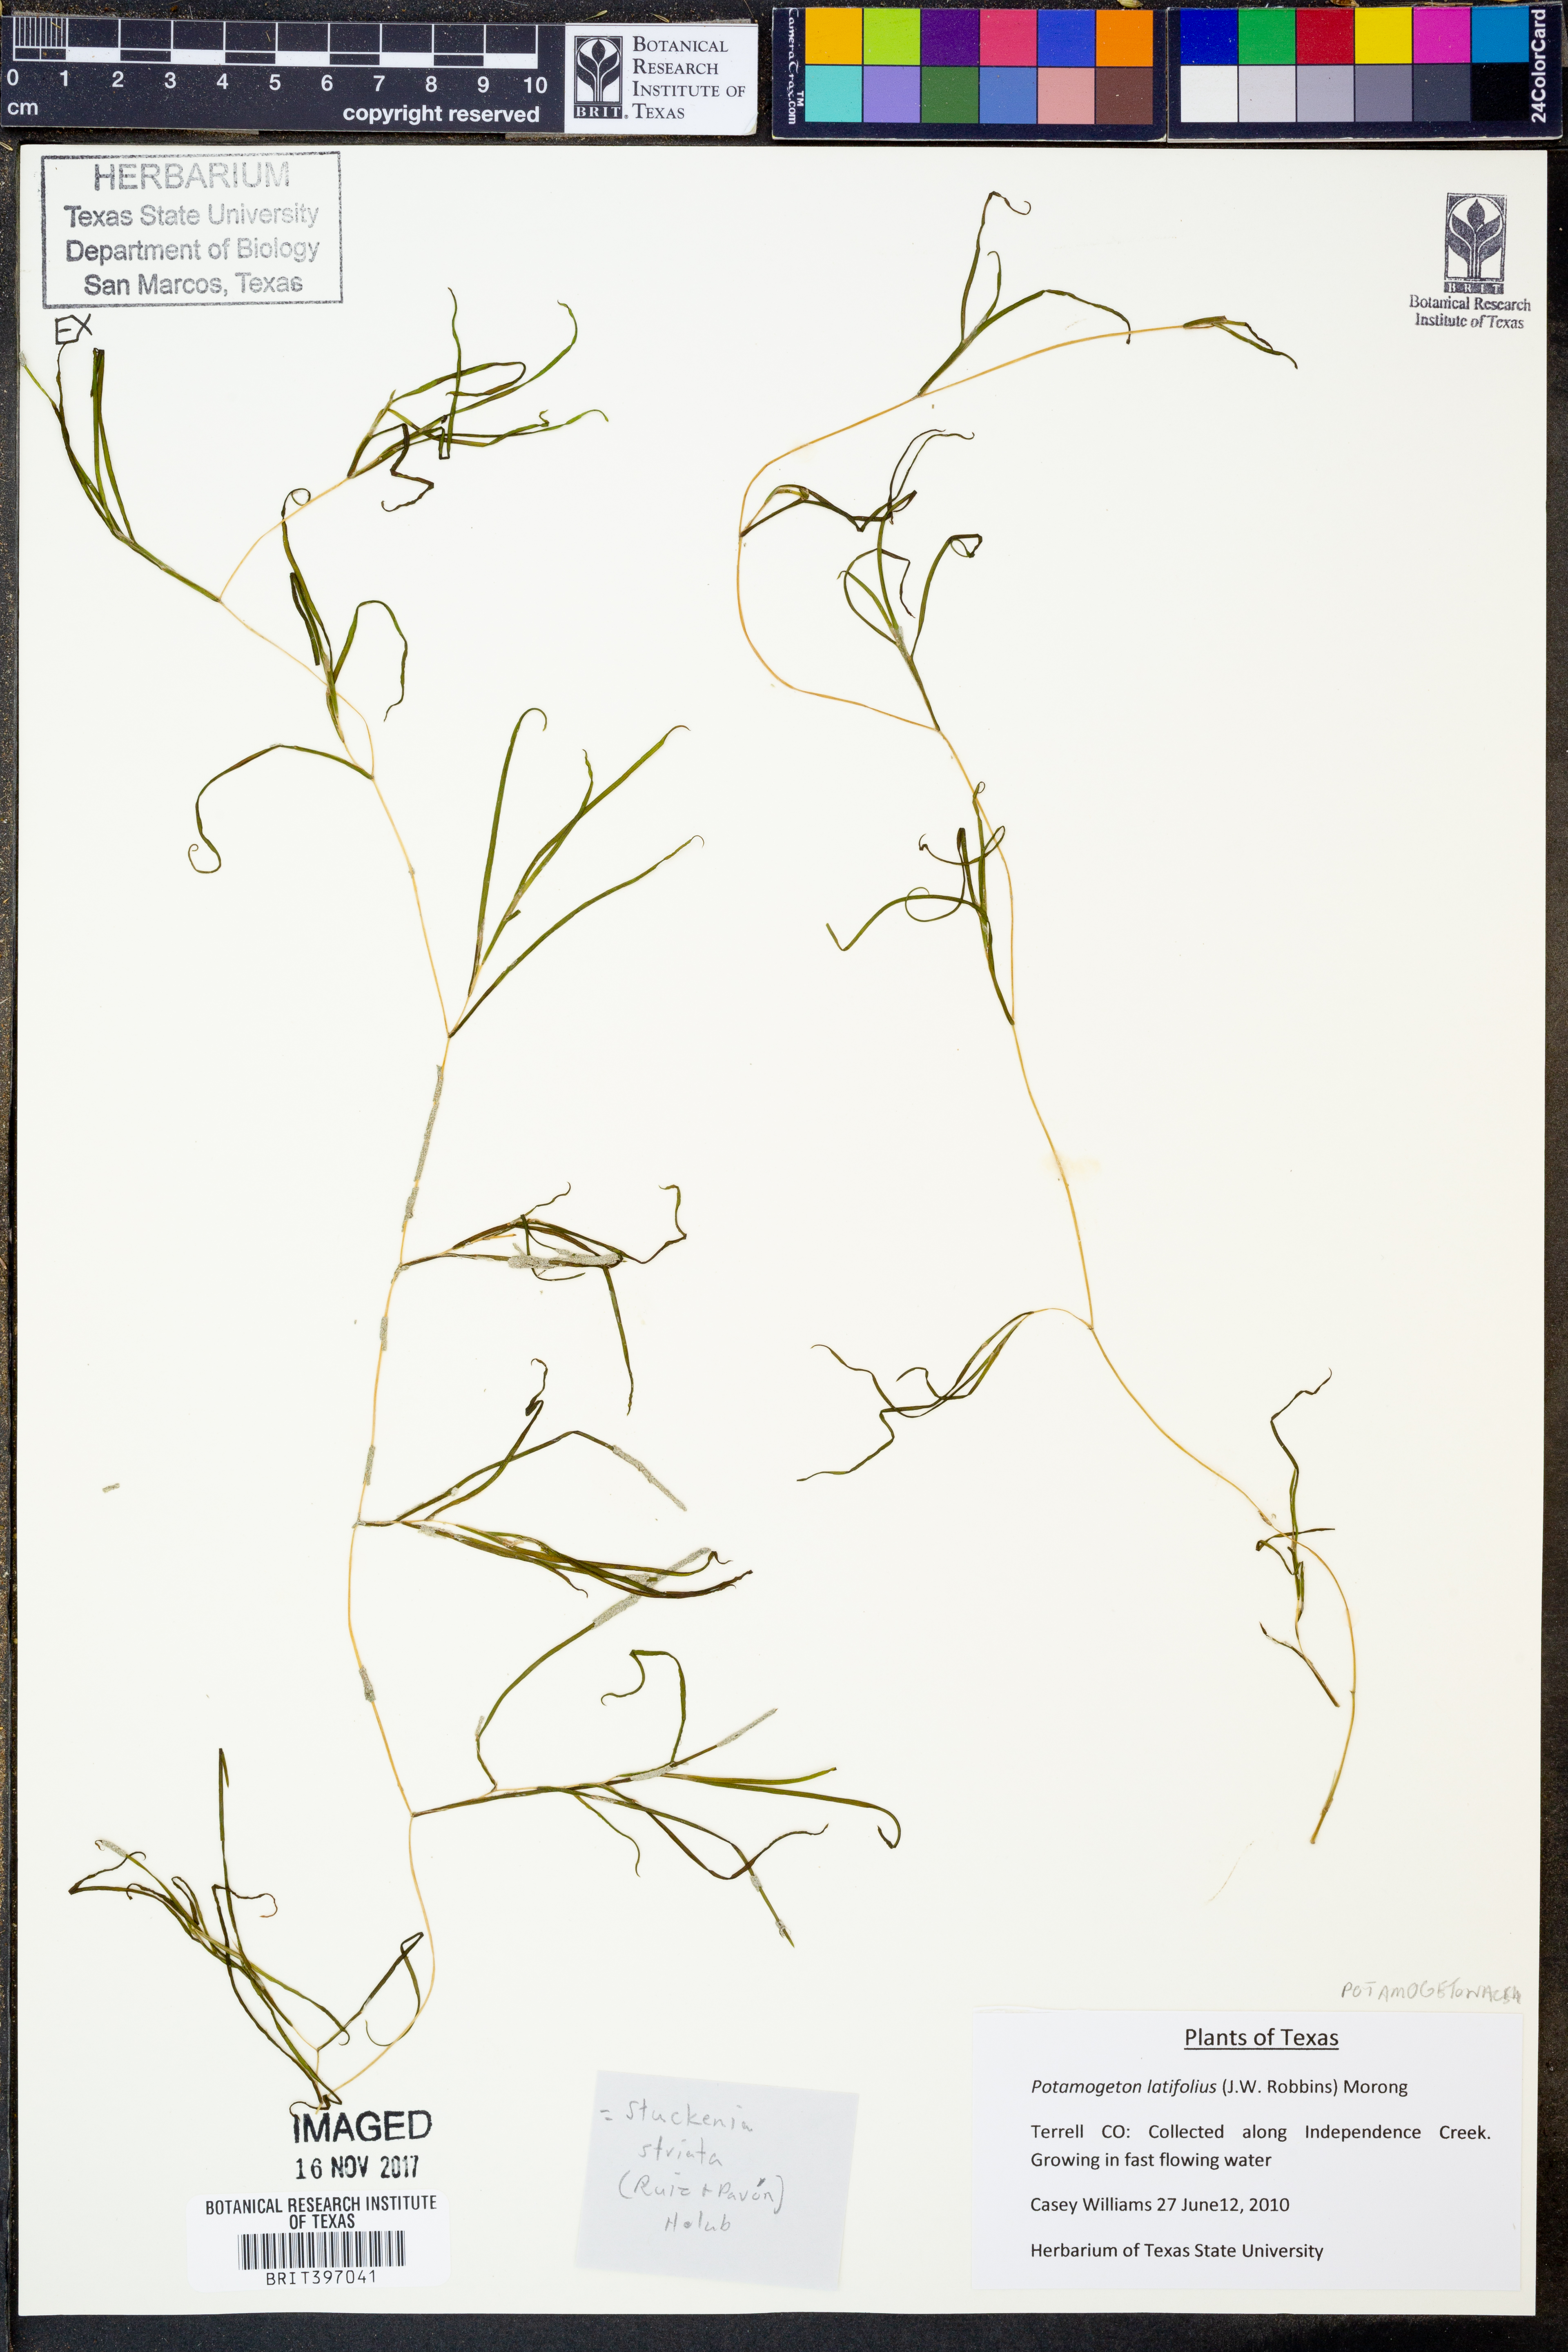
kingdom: Plantae
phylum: Tracheophyta
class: Liliopsida
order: Alismatales
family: Potamogetonaceae
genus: Potamogeton
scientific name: Potamogeton foliosus
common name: Leafy pondweed
